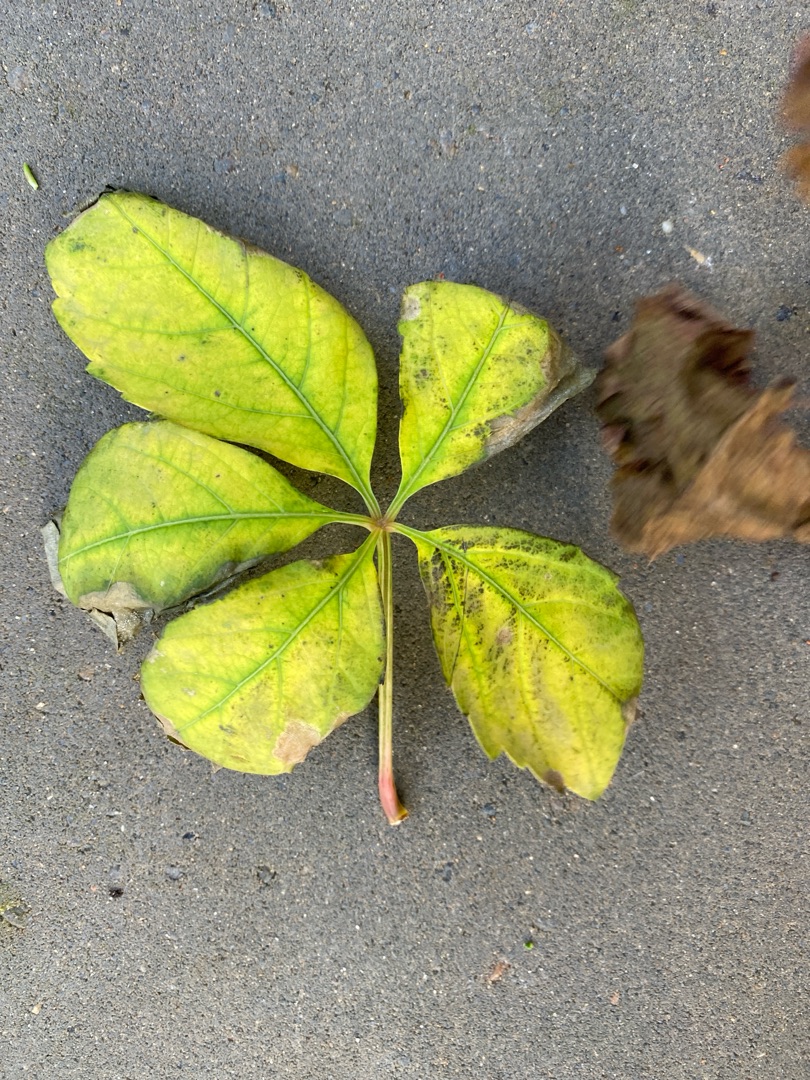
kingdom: Plantae
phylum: Tracheophyta
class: Magnoliopsida
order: Vitales
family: Vitaceae
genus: Parthenocissus
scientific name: Parthenocissus
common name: Vildvinslægten
